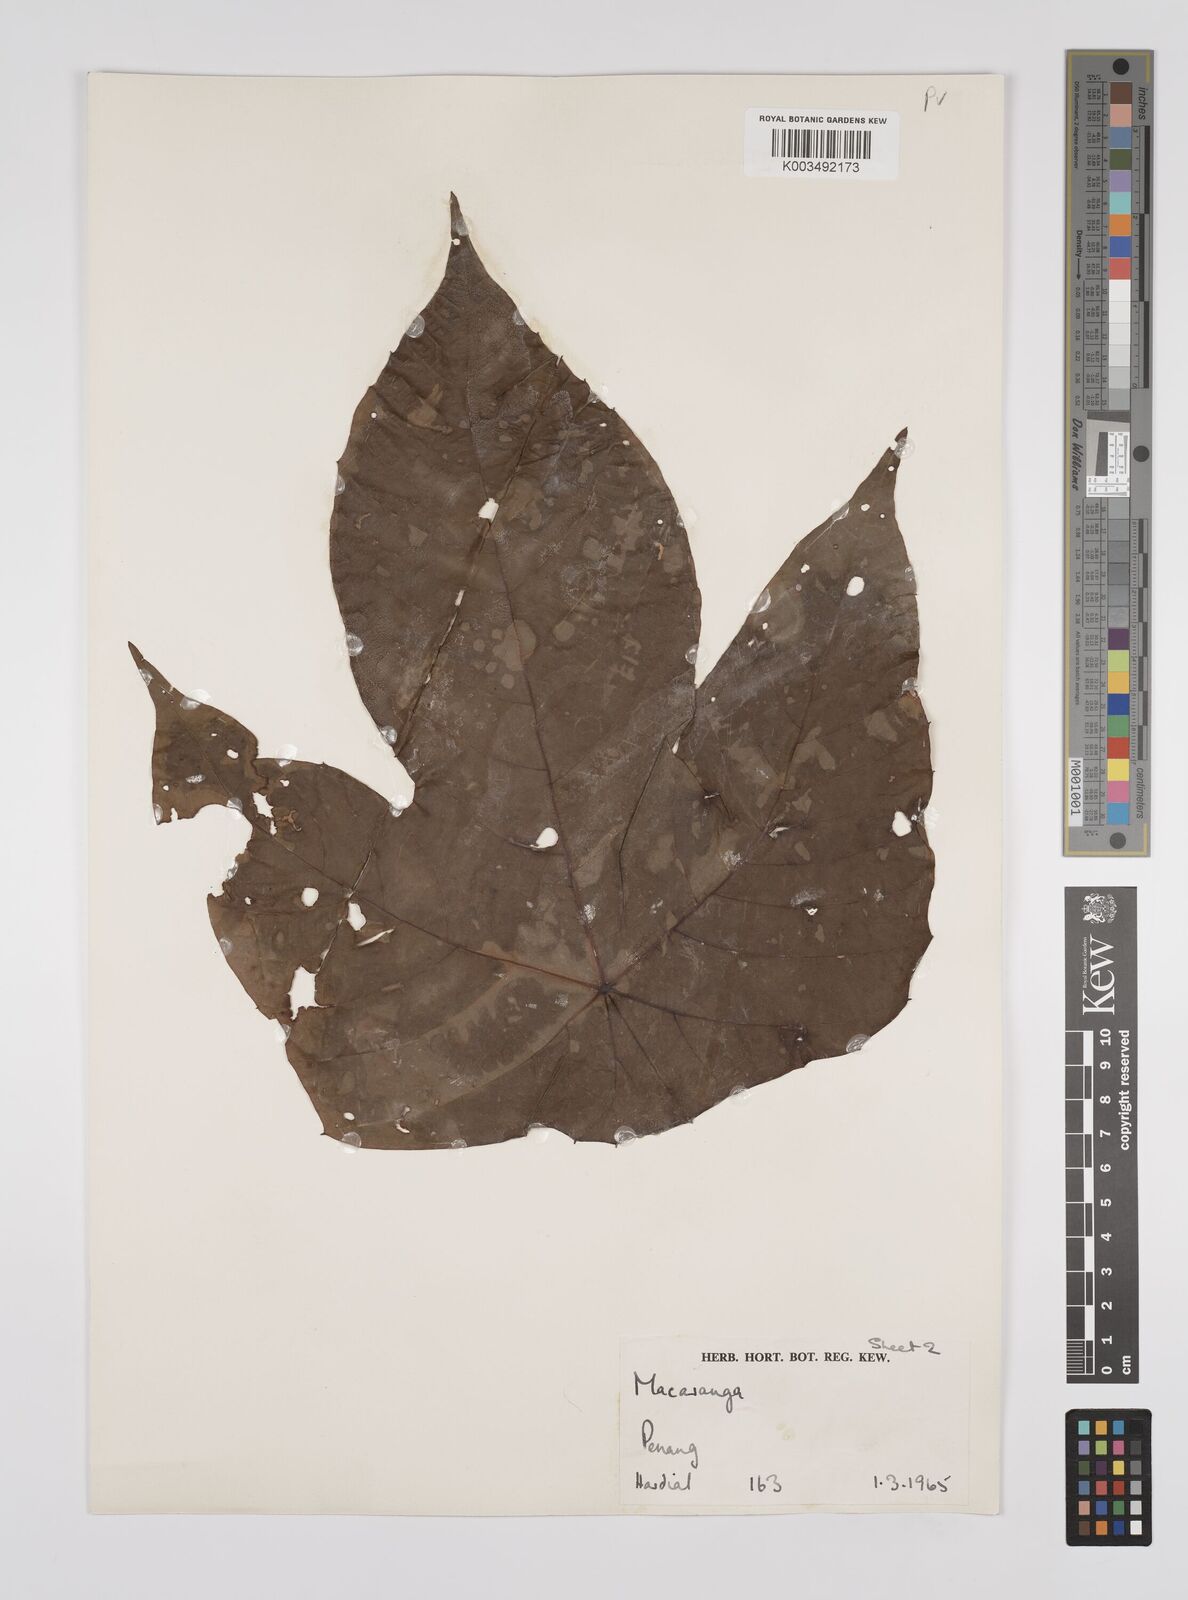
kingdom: Plantae
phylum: Tracheophyta
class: Magnoliopsida
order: Malpighiales
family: Euphorbiaceae
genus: Macaranga
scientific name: Macaranga triloba
